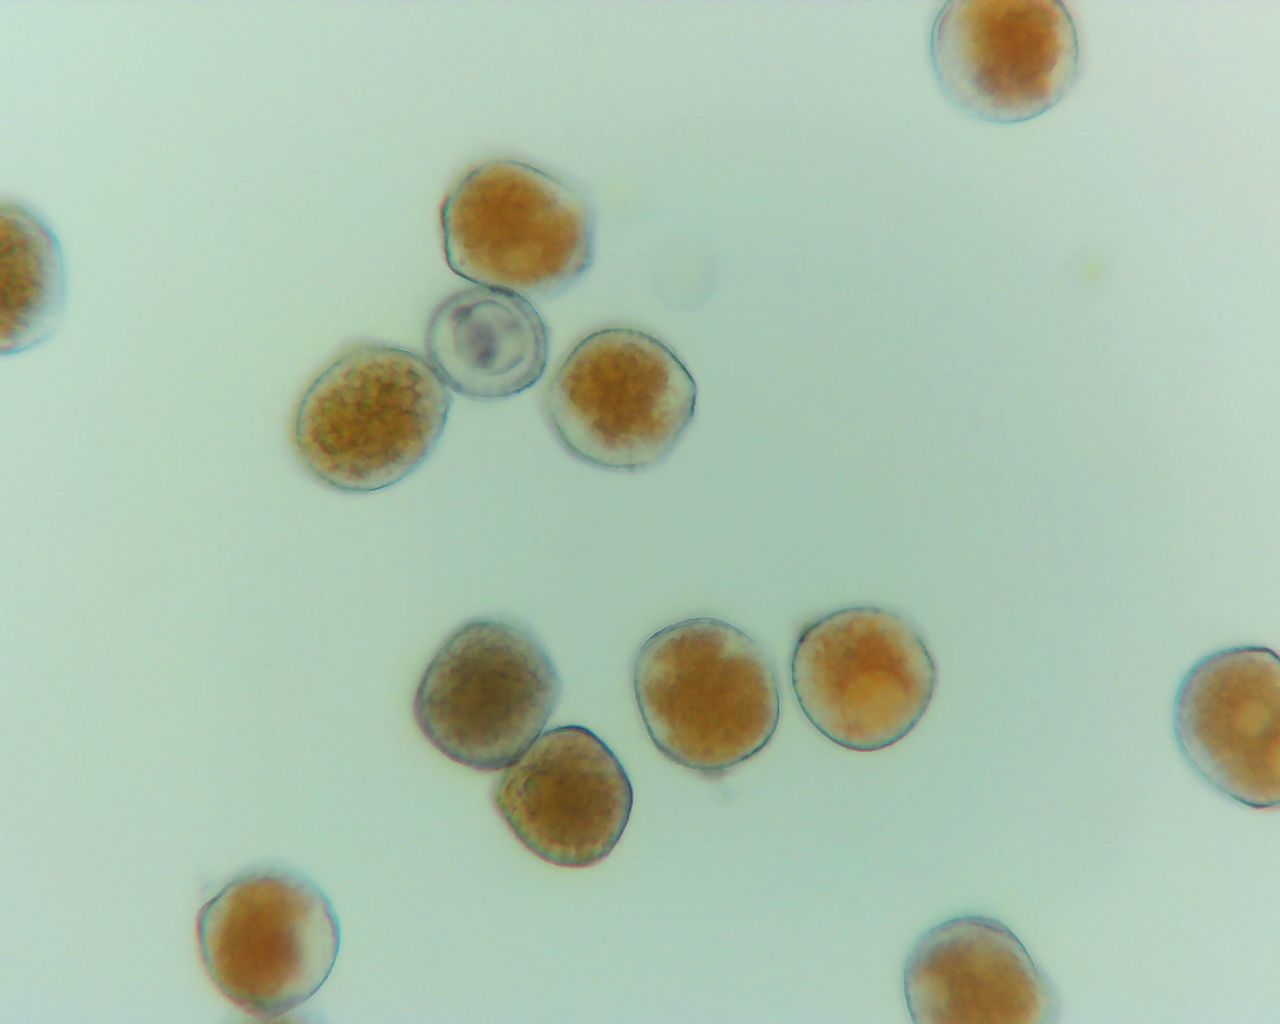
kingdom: Fungi
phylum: Basidiomycota
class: Pucciniomycetes
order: Pucciniales
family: Phragmidiaceae
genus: Phragmidium
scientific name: Phragmidium
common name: flercellerust
